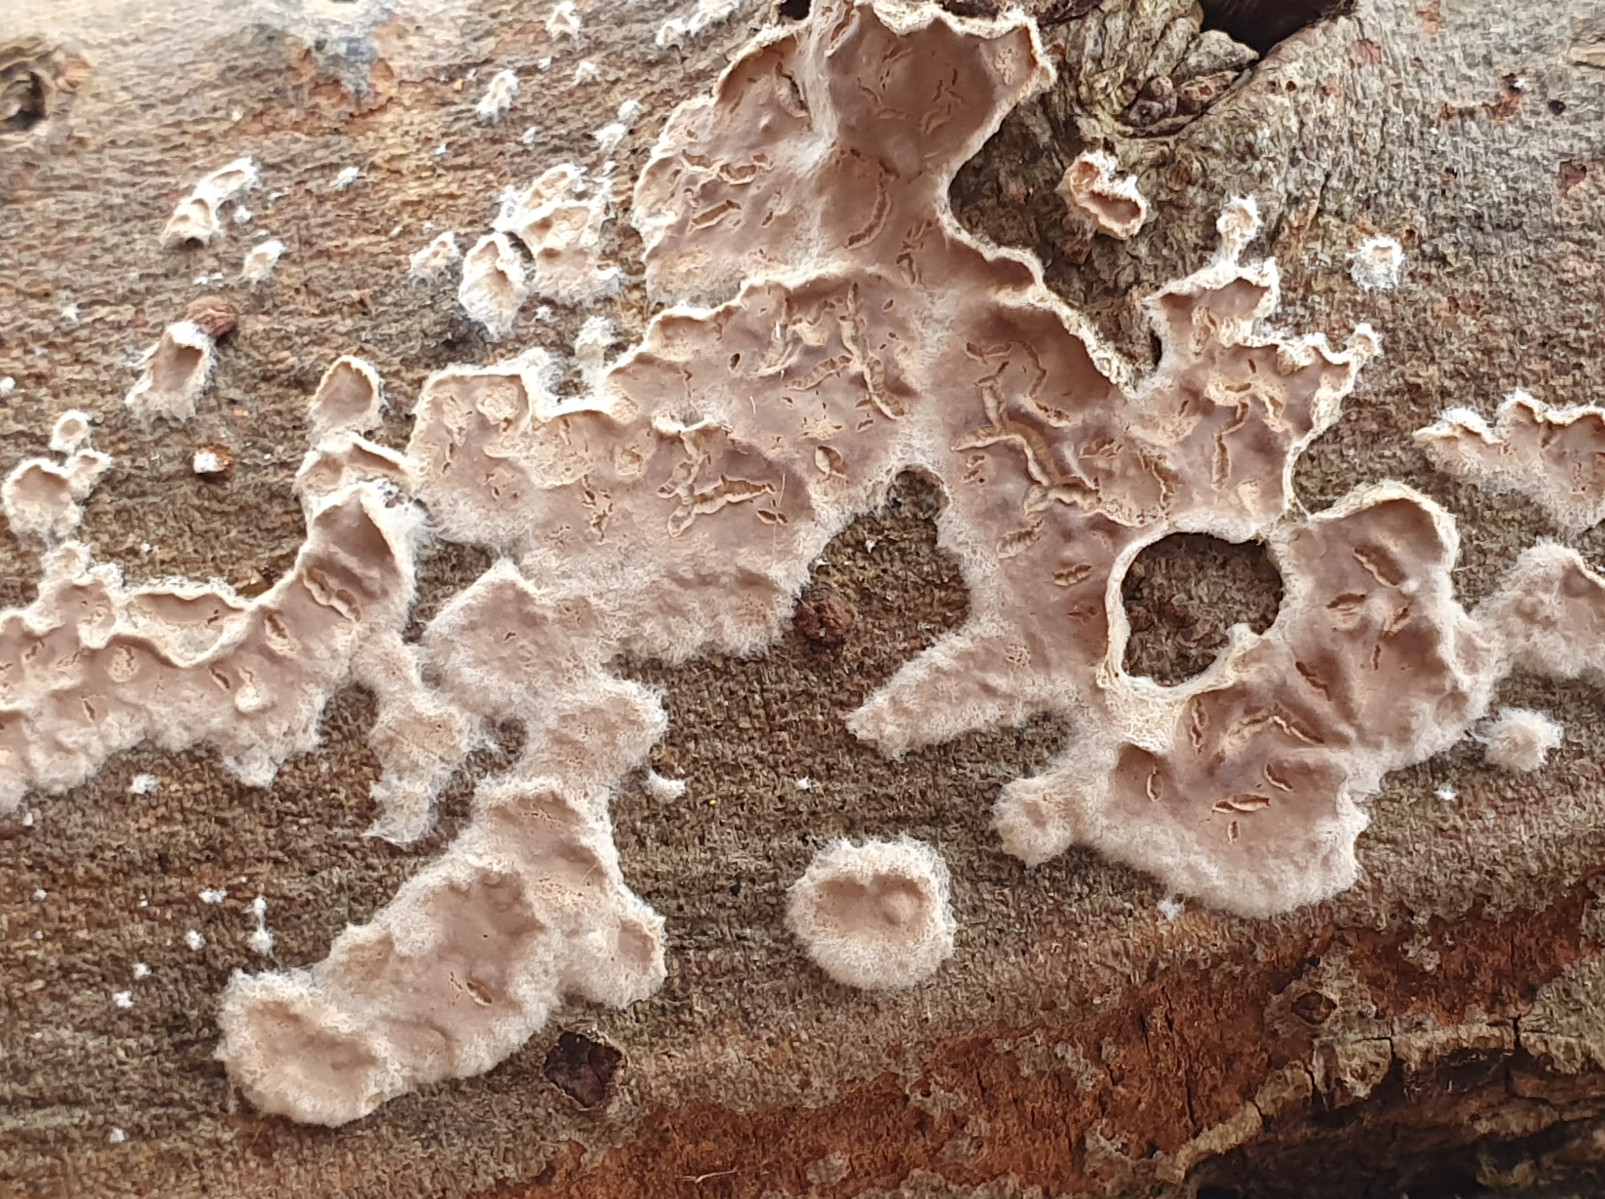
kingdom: Fungi
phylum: Basidiomycota
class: Agaricomycetes
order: Agaricales
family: Physalacriaceae
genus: Cylindrobasidium
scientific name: Cylindrobasidium evolvens
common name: sprækkehinde
